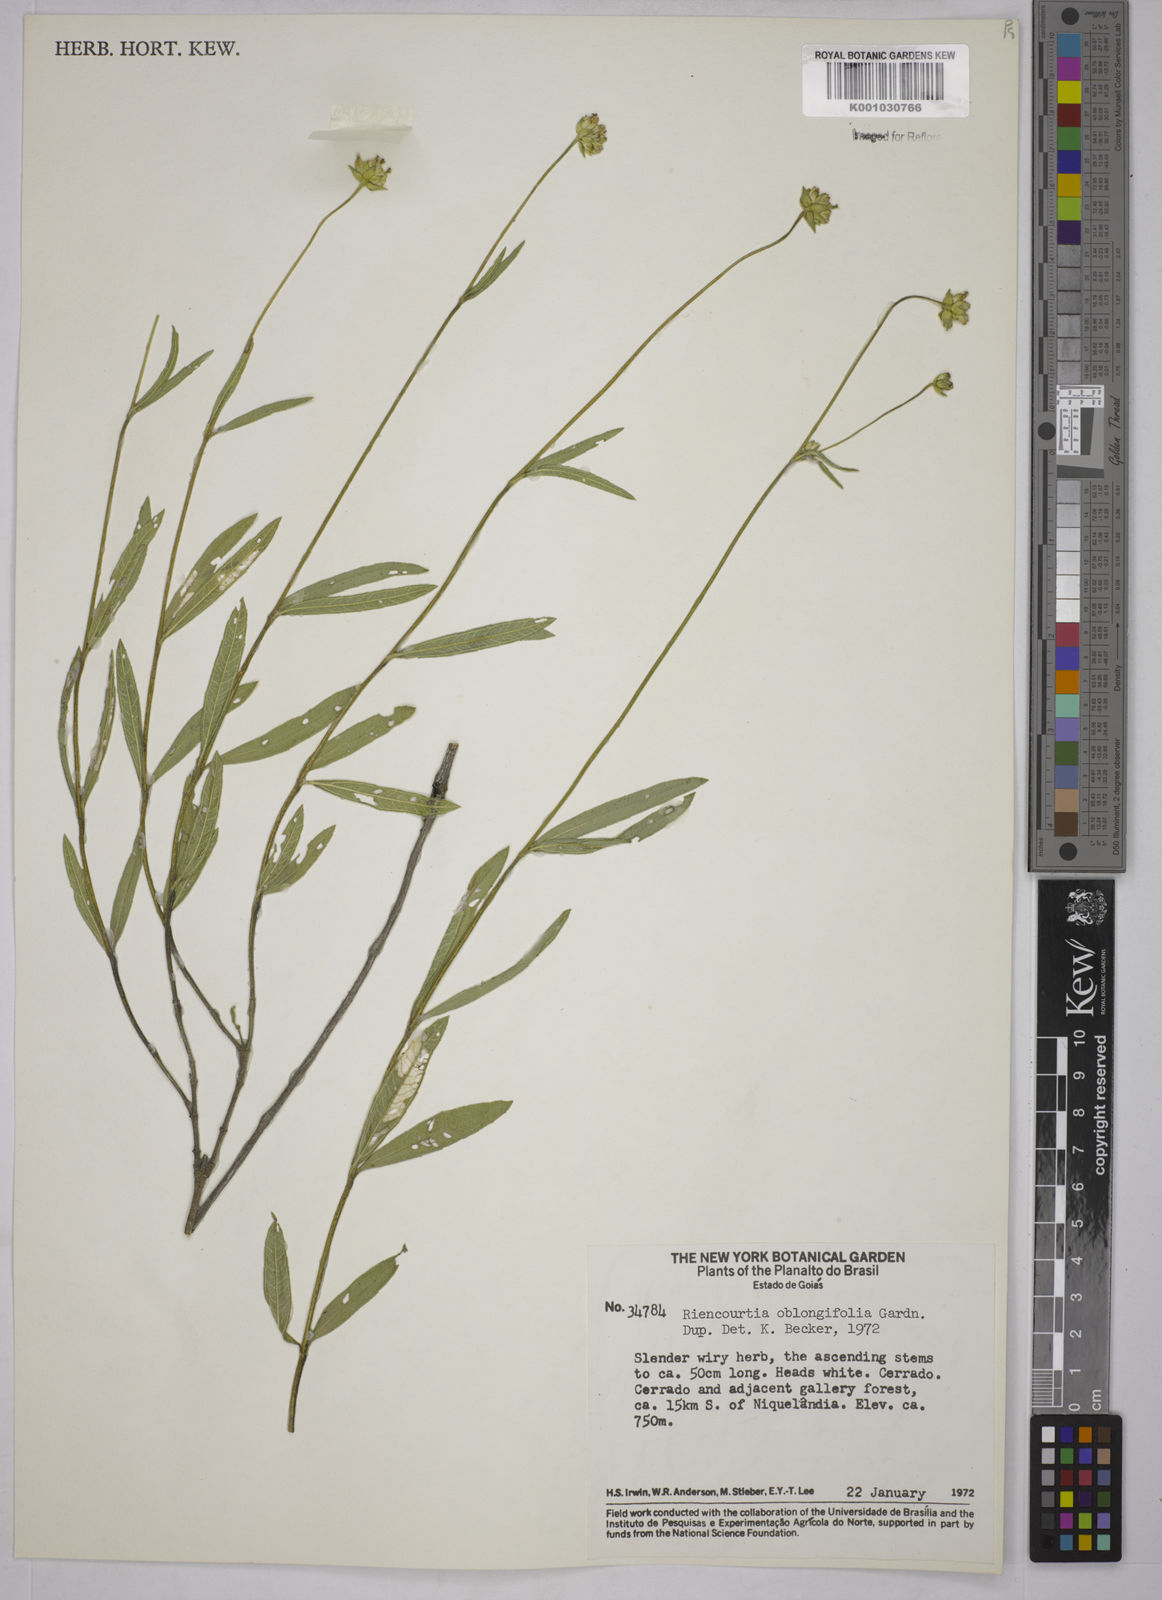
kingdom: Plantae
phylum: Tracheophyta
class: Magnoliopsida
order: Asterales
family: Asteraceae
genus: Riencourtia
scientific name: Riencourtia oblongifolia
